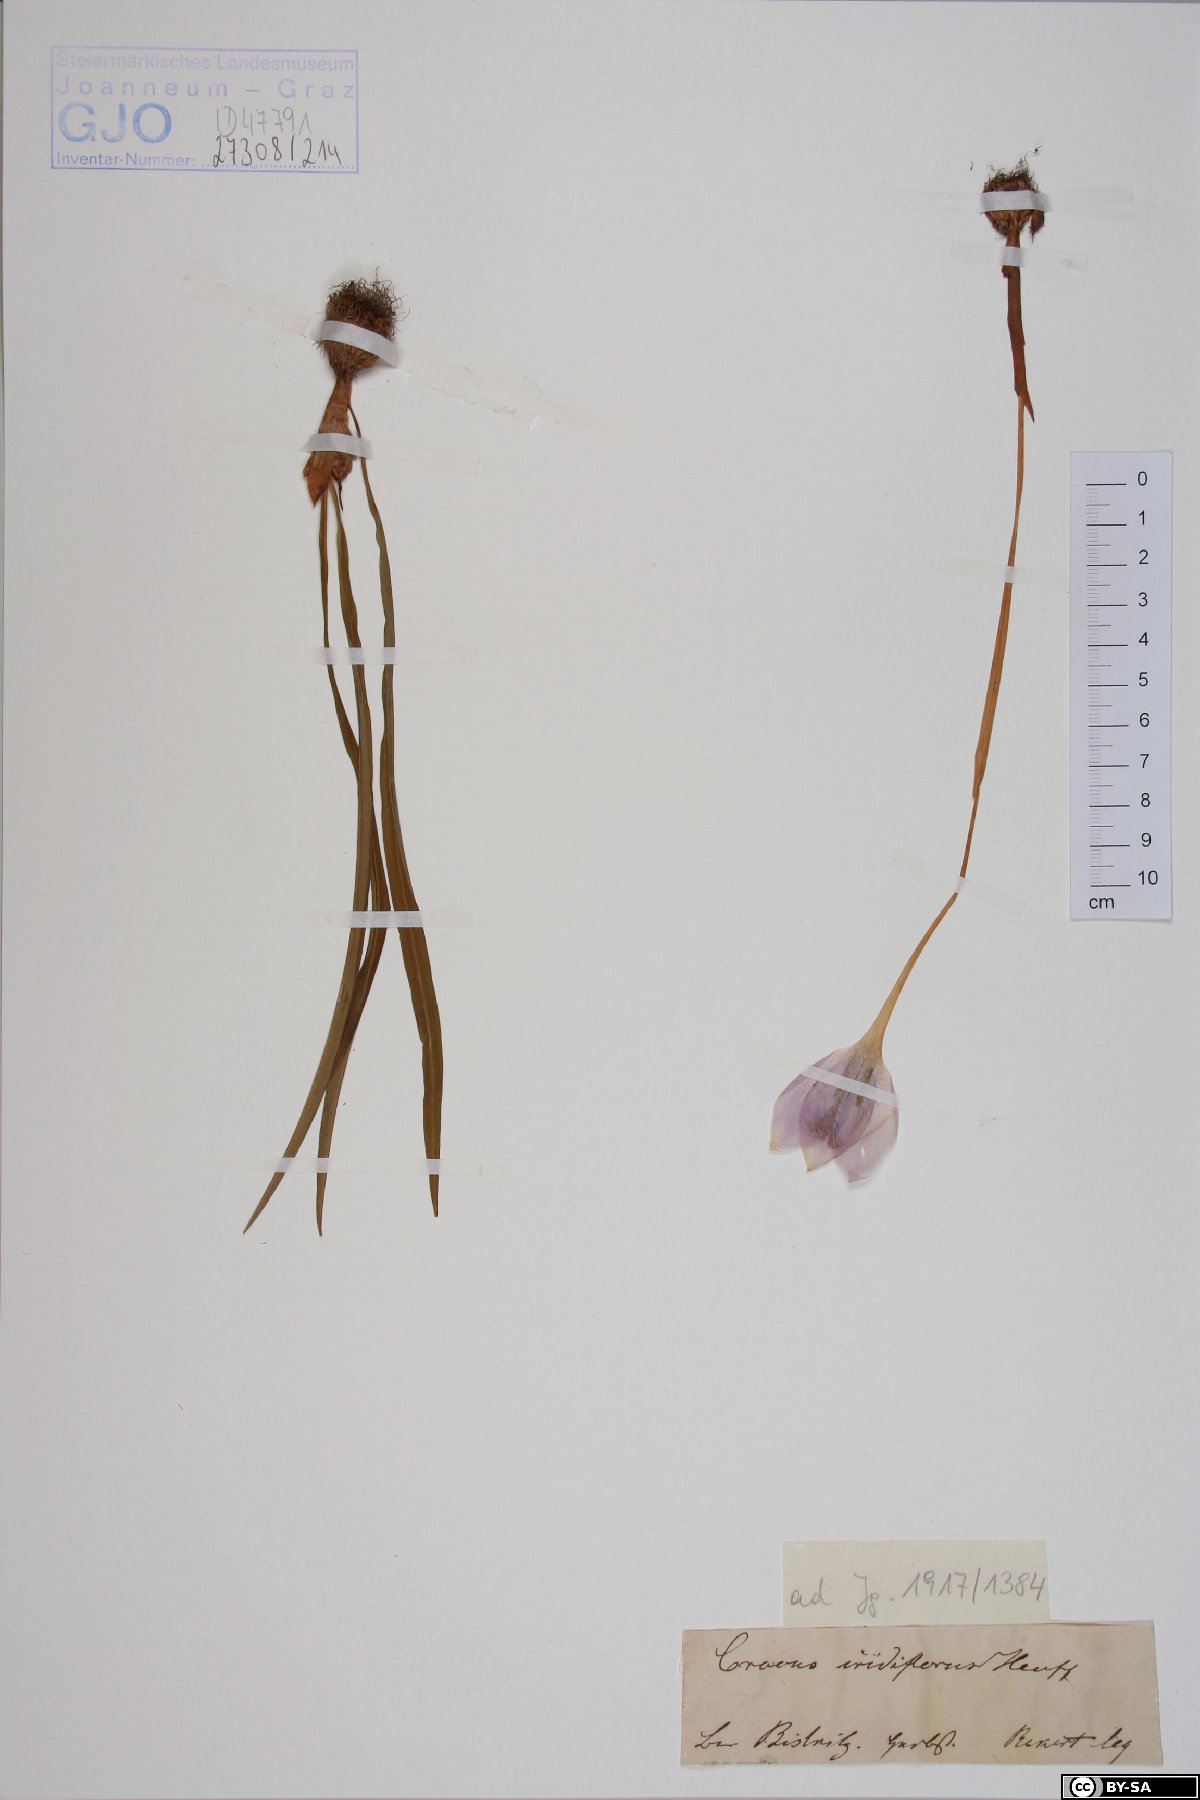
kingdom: Plantae
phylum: Tracheophyta
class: Liliopsida
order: Asparagales
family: Iridaceae
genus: Crocus
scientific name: Crocus banaticus
